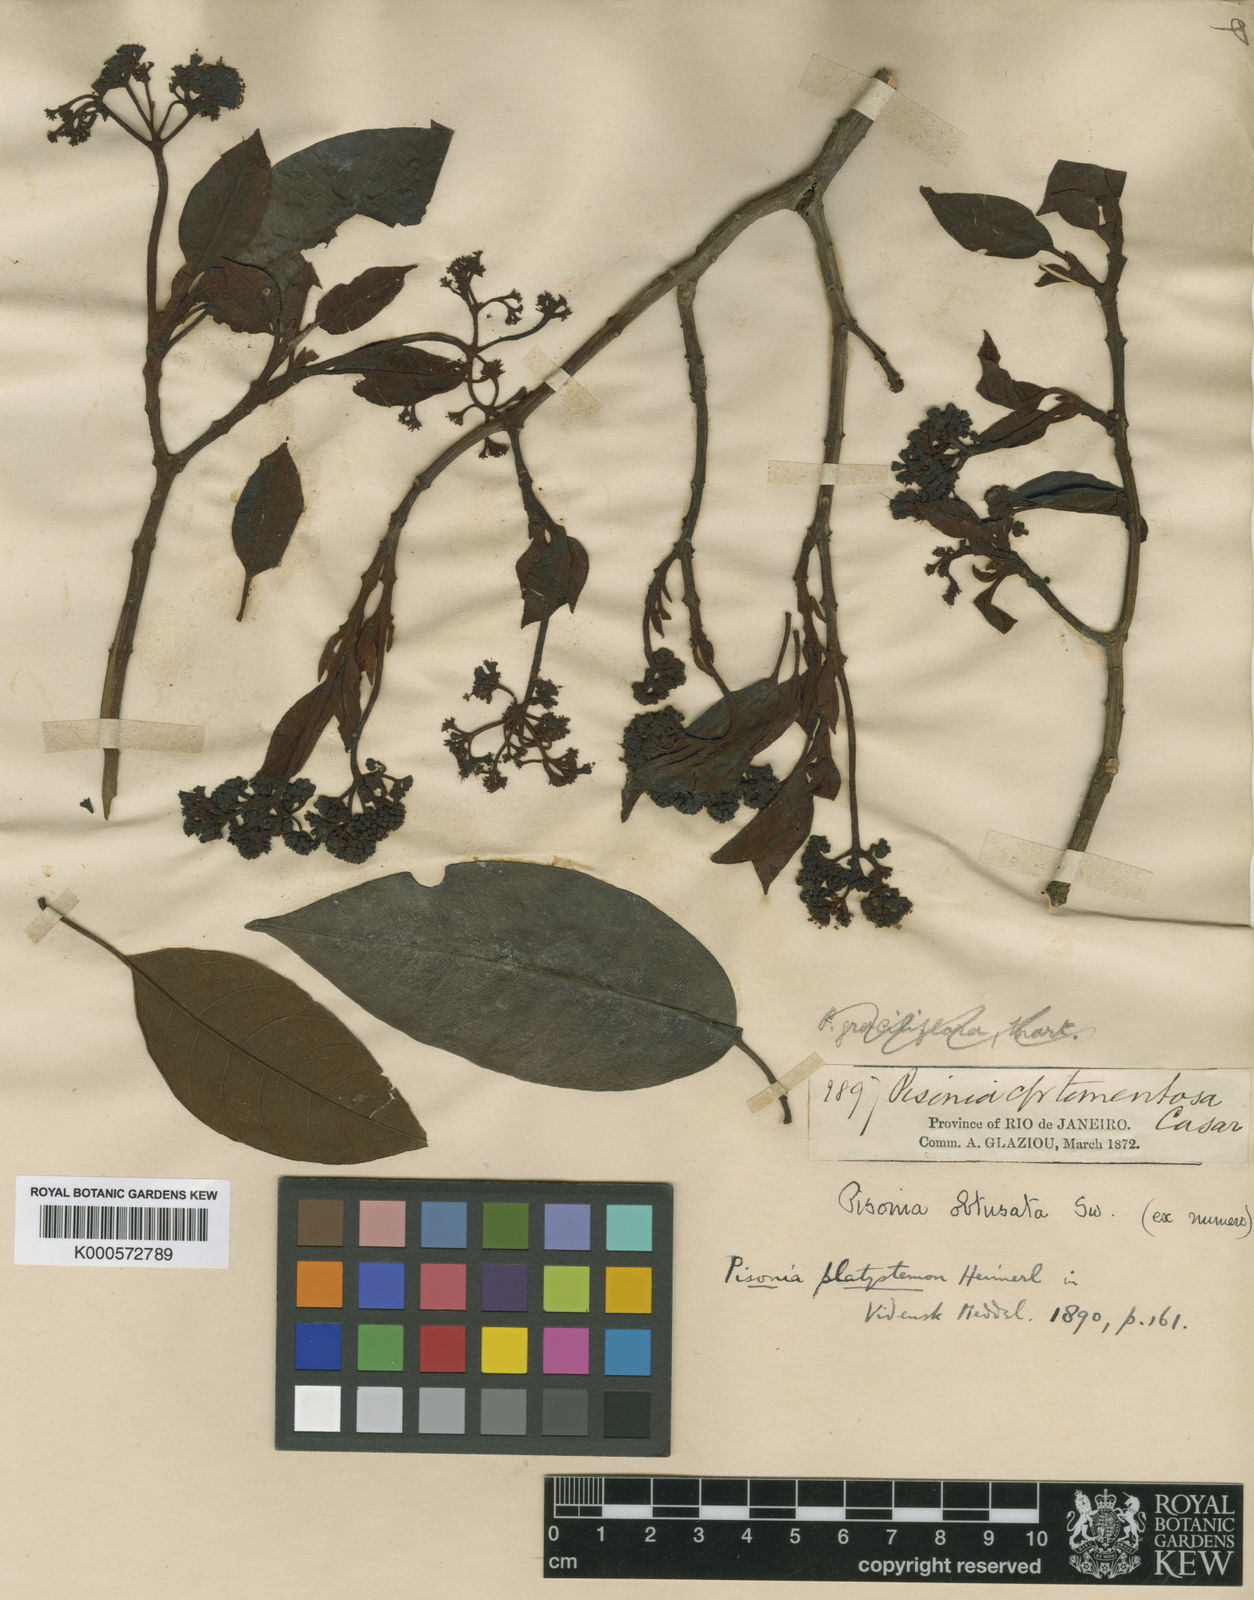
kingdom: Plantae
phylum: Tracheophyta
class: Magnoliopsida
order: Caryophyllales
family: Nyctaginaceae
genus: Guapira
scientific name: Guapira
